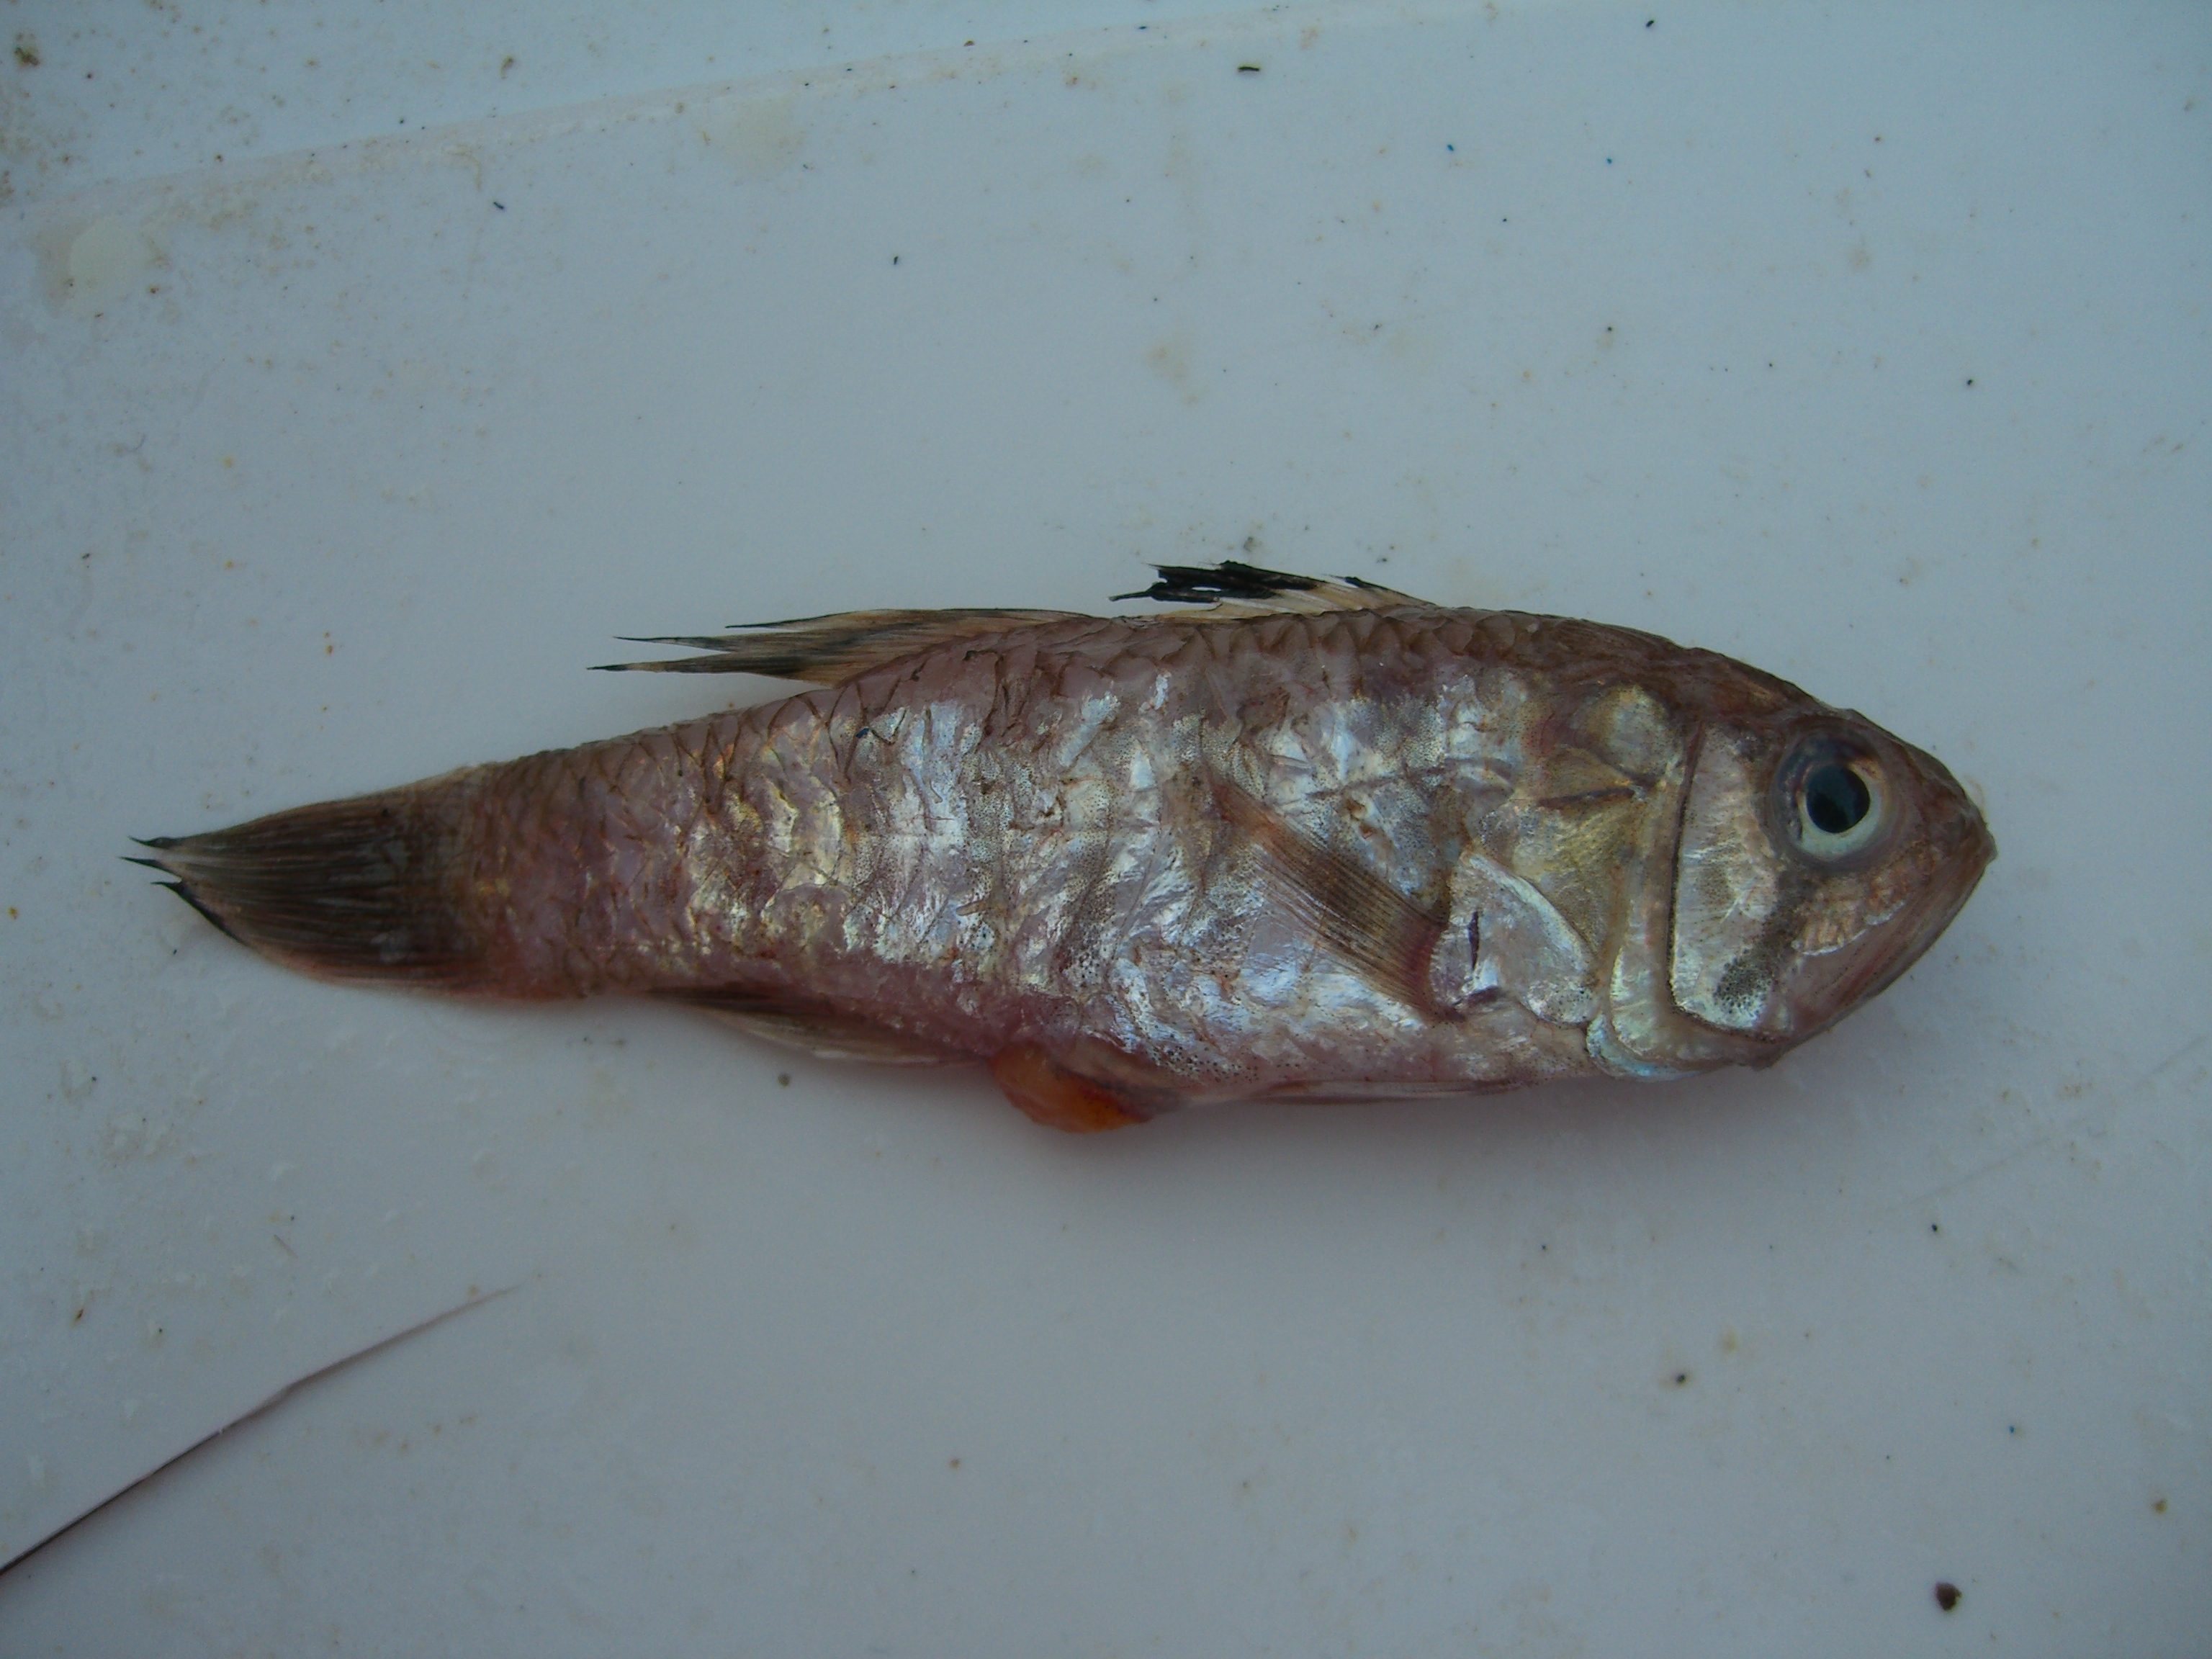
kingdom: Animalia
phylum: Chordata
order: Perciformes
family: Apogonidae
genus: Jaydia
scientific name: Jaydia smithi
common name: Smith's cardinalfish
